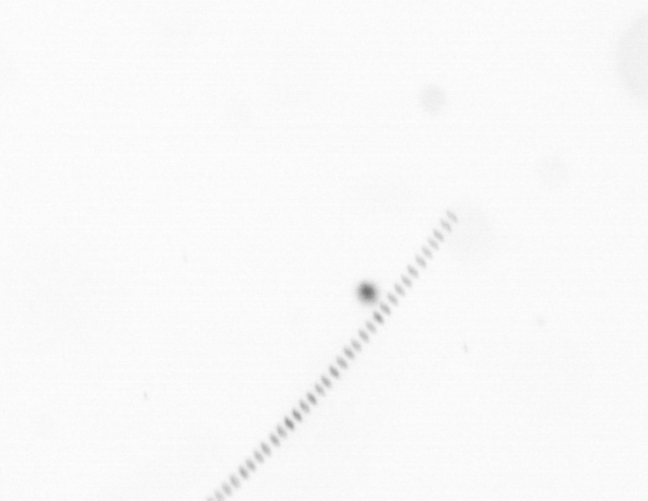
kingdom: Chromista
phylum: Ochrophyta
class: Bacillariophyceae
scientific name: Bacillariophyceae
